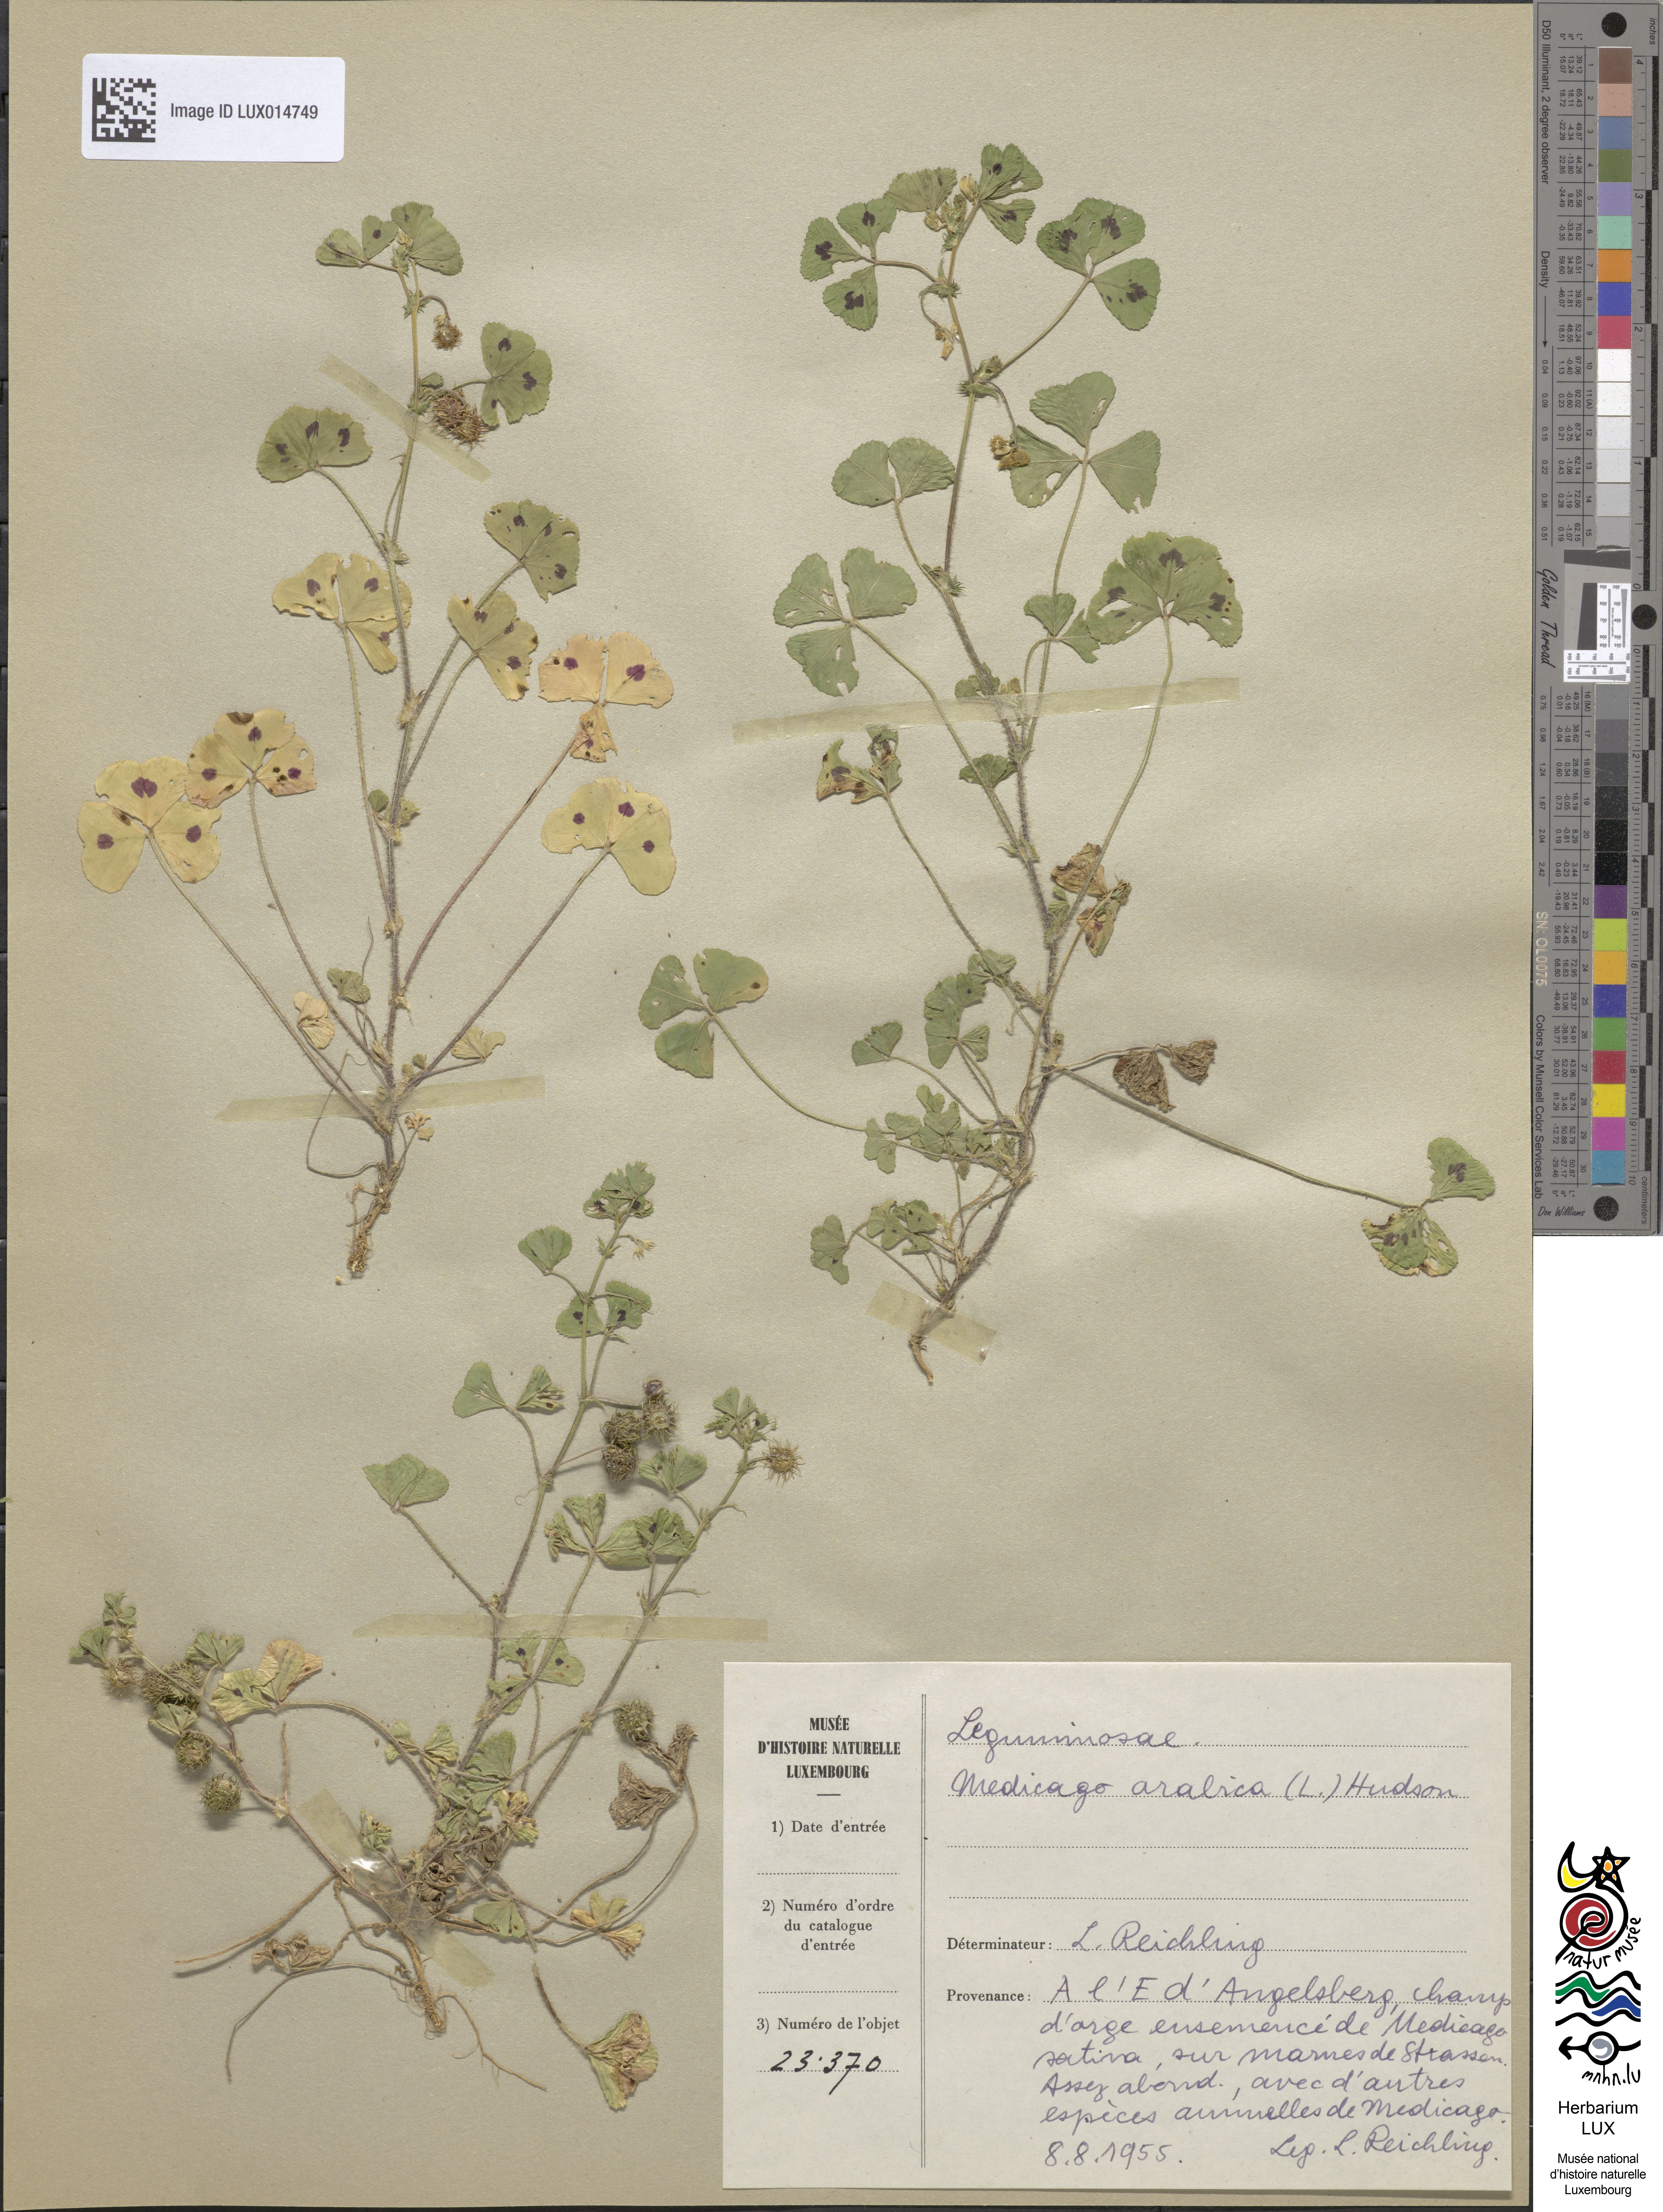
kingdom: Plantae
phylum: Tracheophyta
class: Magnoliopsida
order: Fabales
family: Fabaceae
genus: Medicago
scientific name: Medicago arabica
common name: Spotted medick
